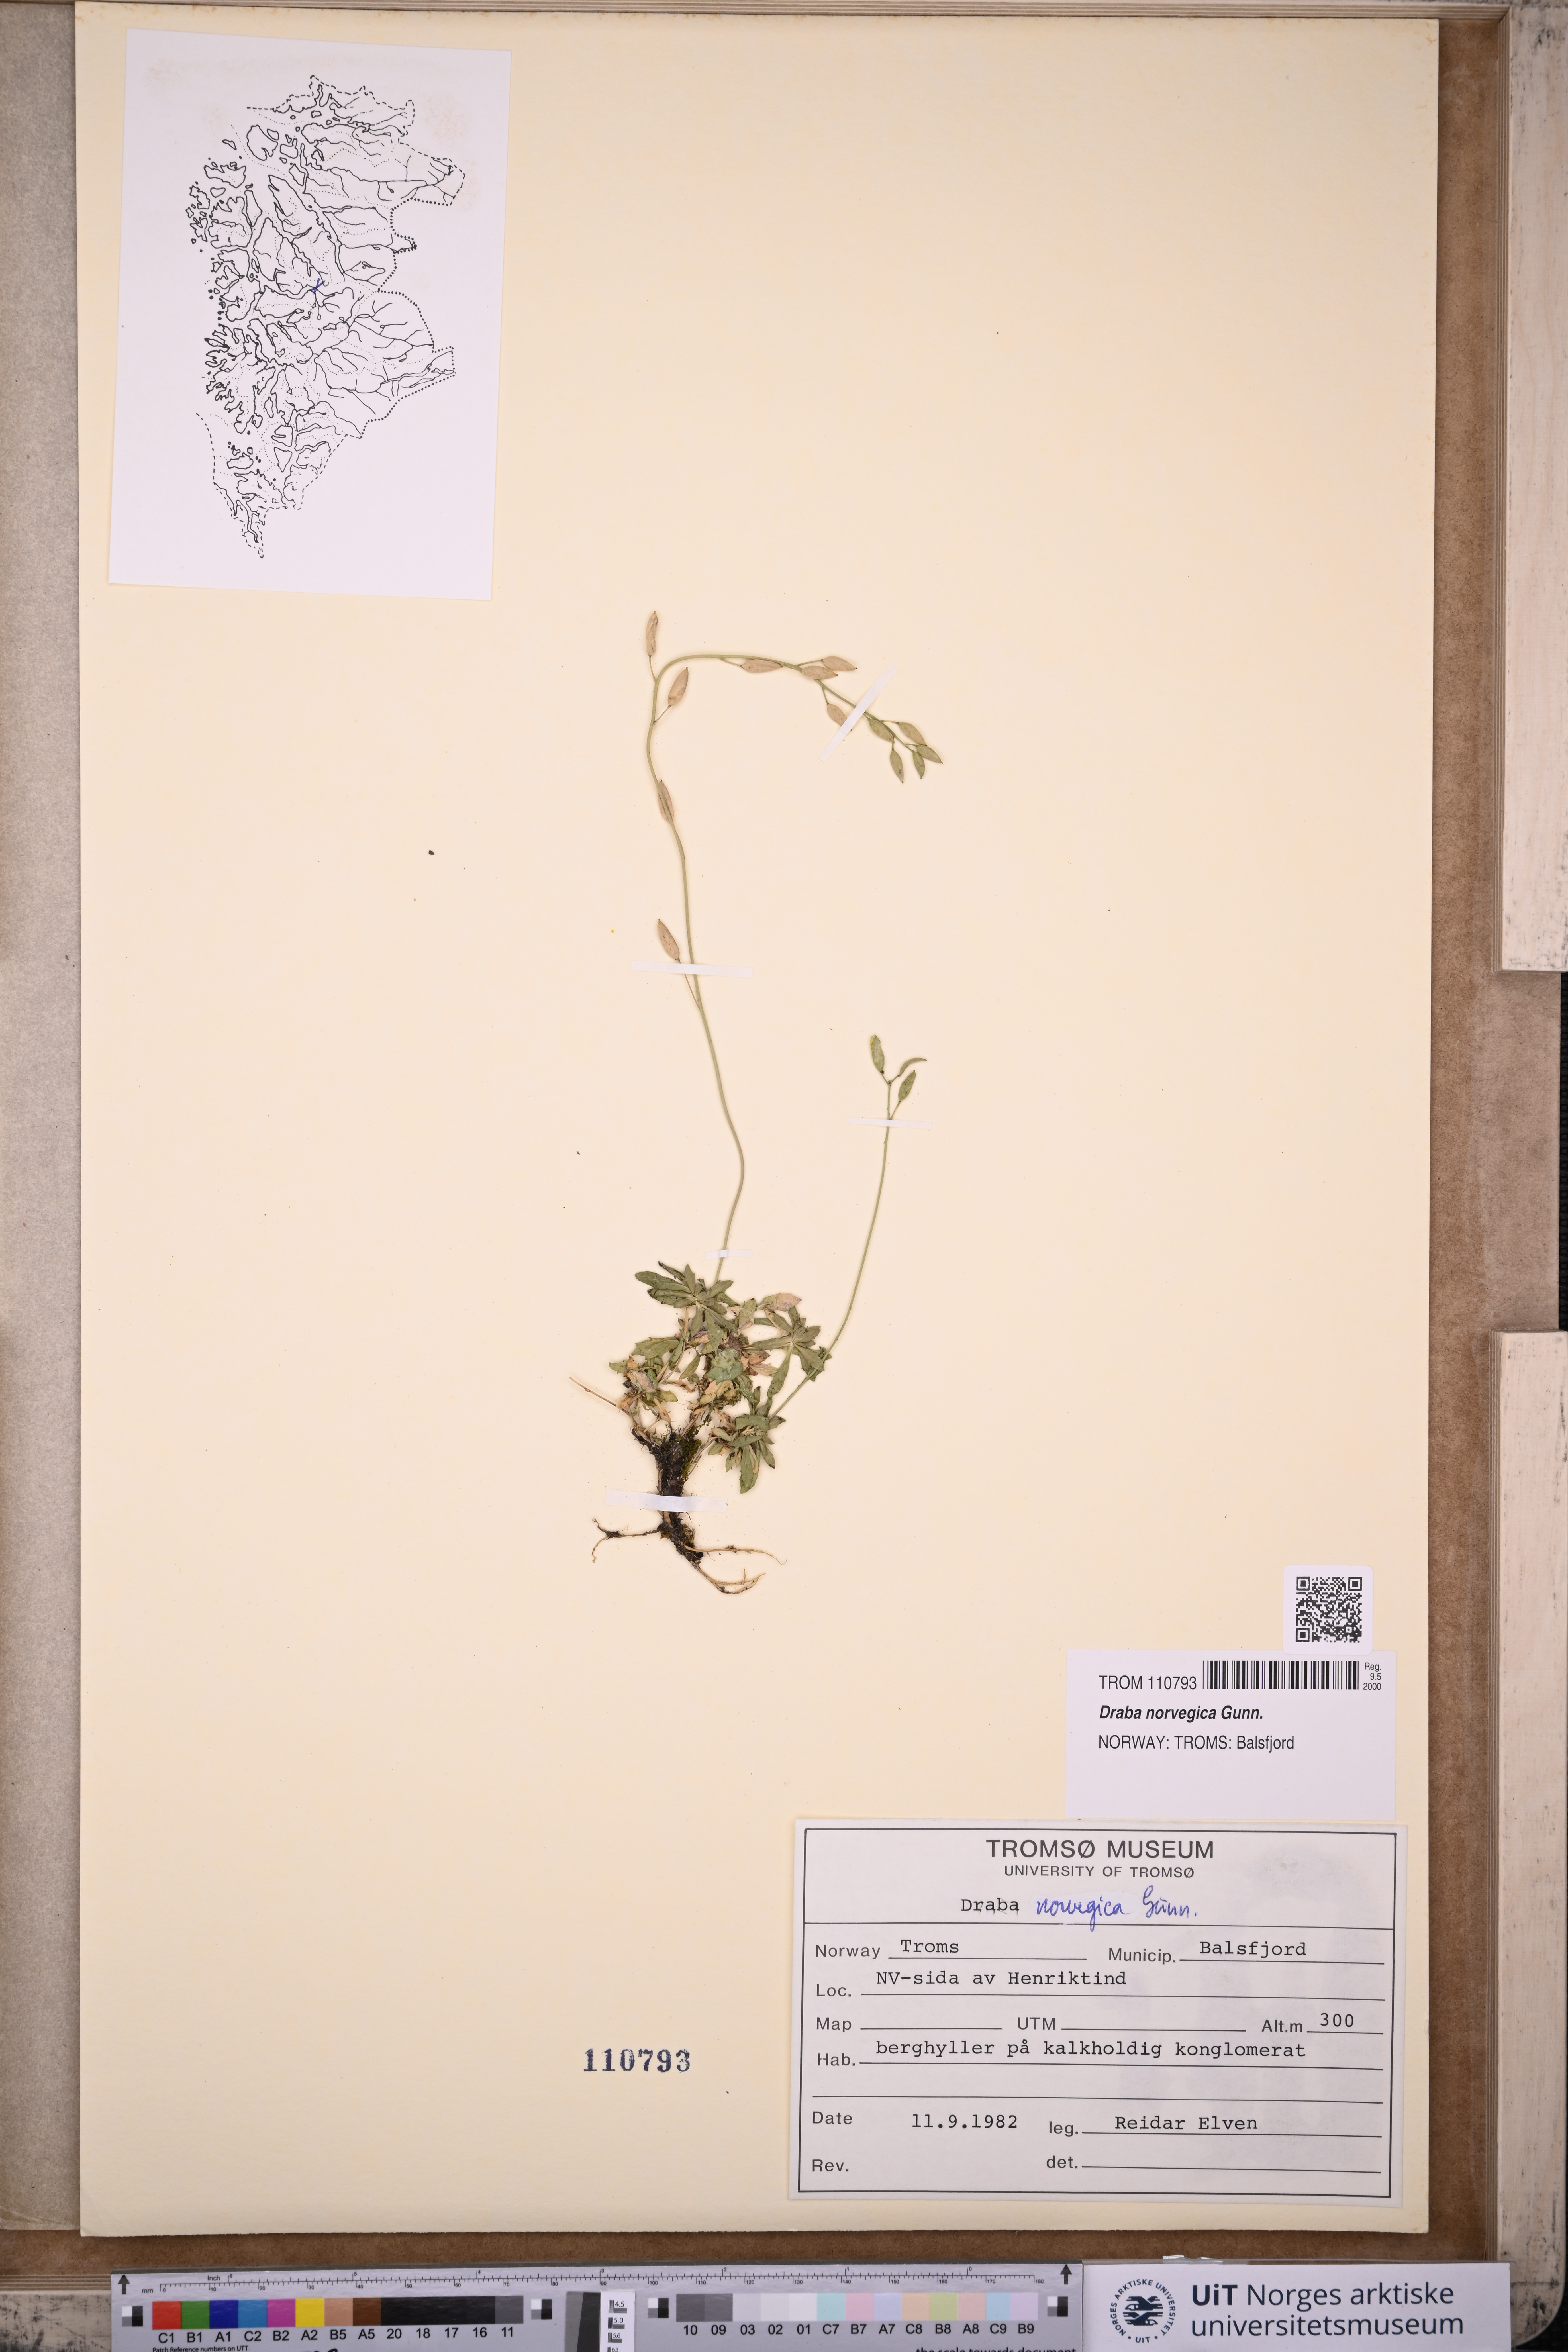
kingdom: Plantae
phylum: Tracheophyta
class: Magnoliopsida
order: Brassicales
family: Brassicaceae
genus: Draba
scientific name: Draba norvegica
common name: Rock whitlowgrass
